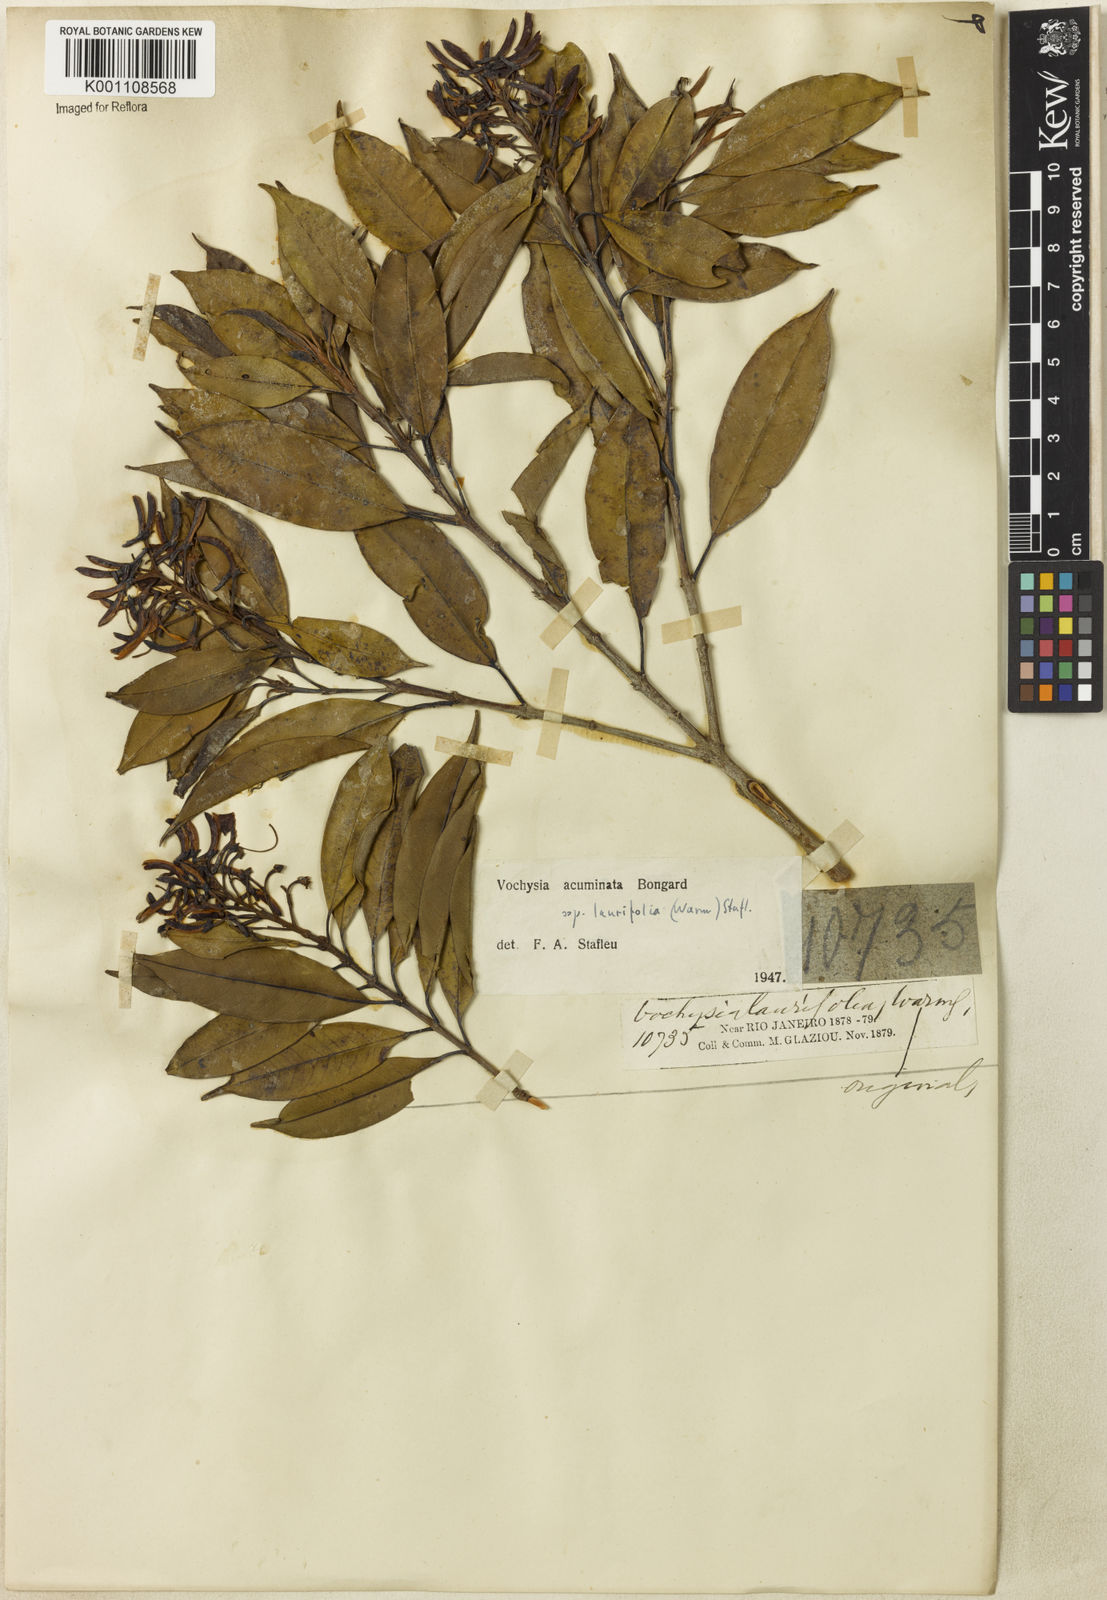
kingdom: Plantae
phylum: Tracheophyta
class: Magnoliopsida
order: Myrtales
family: Vochysiaceae
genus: Vochysia
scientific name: Vochysia laurifolia
